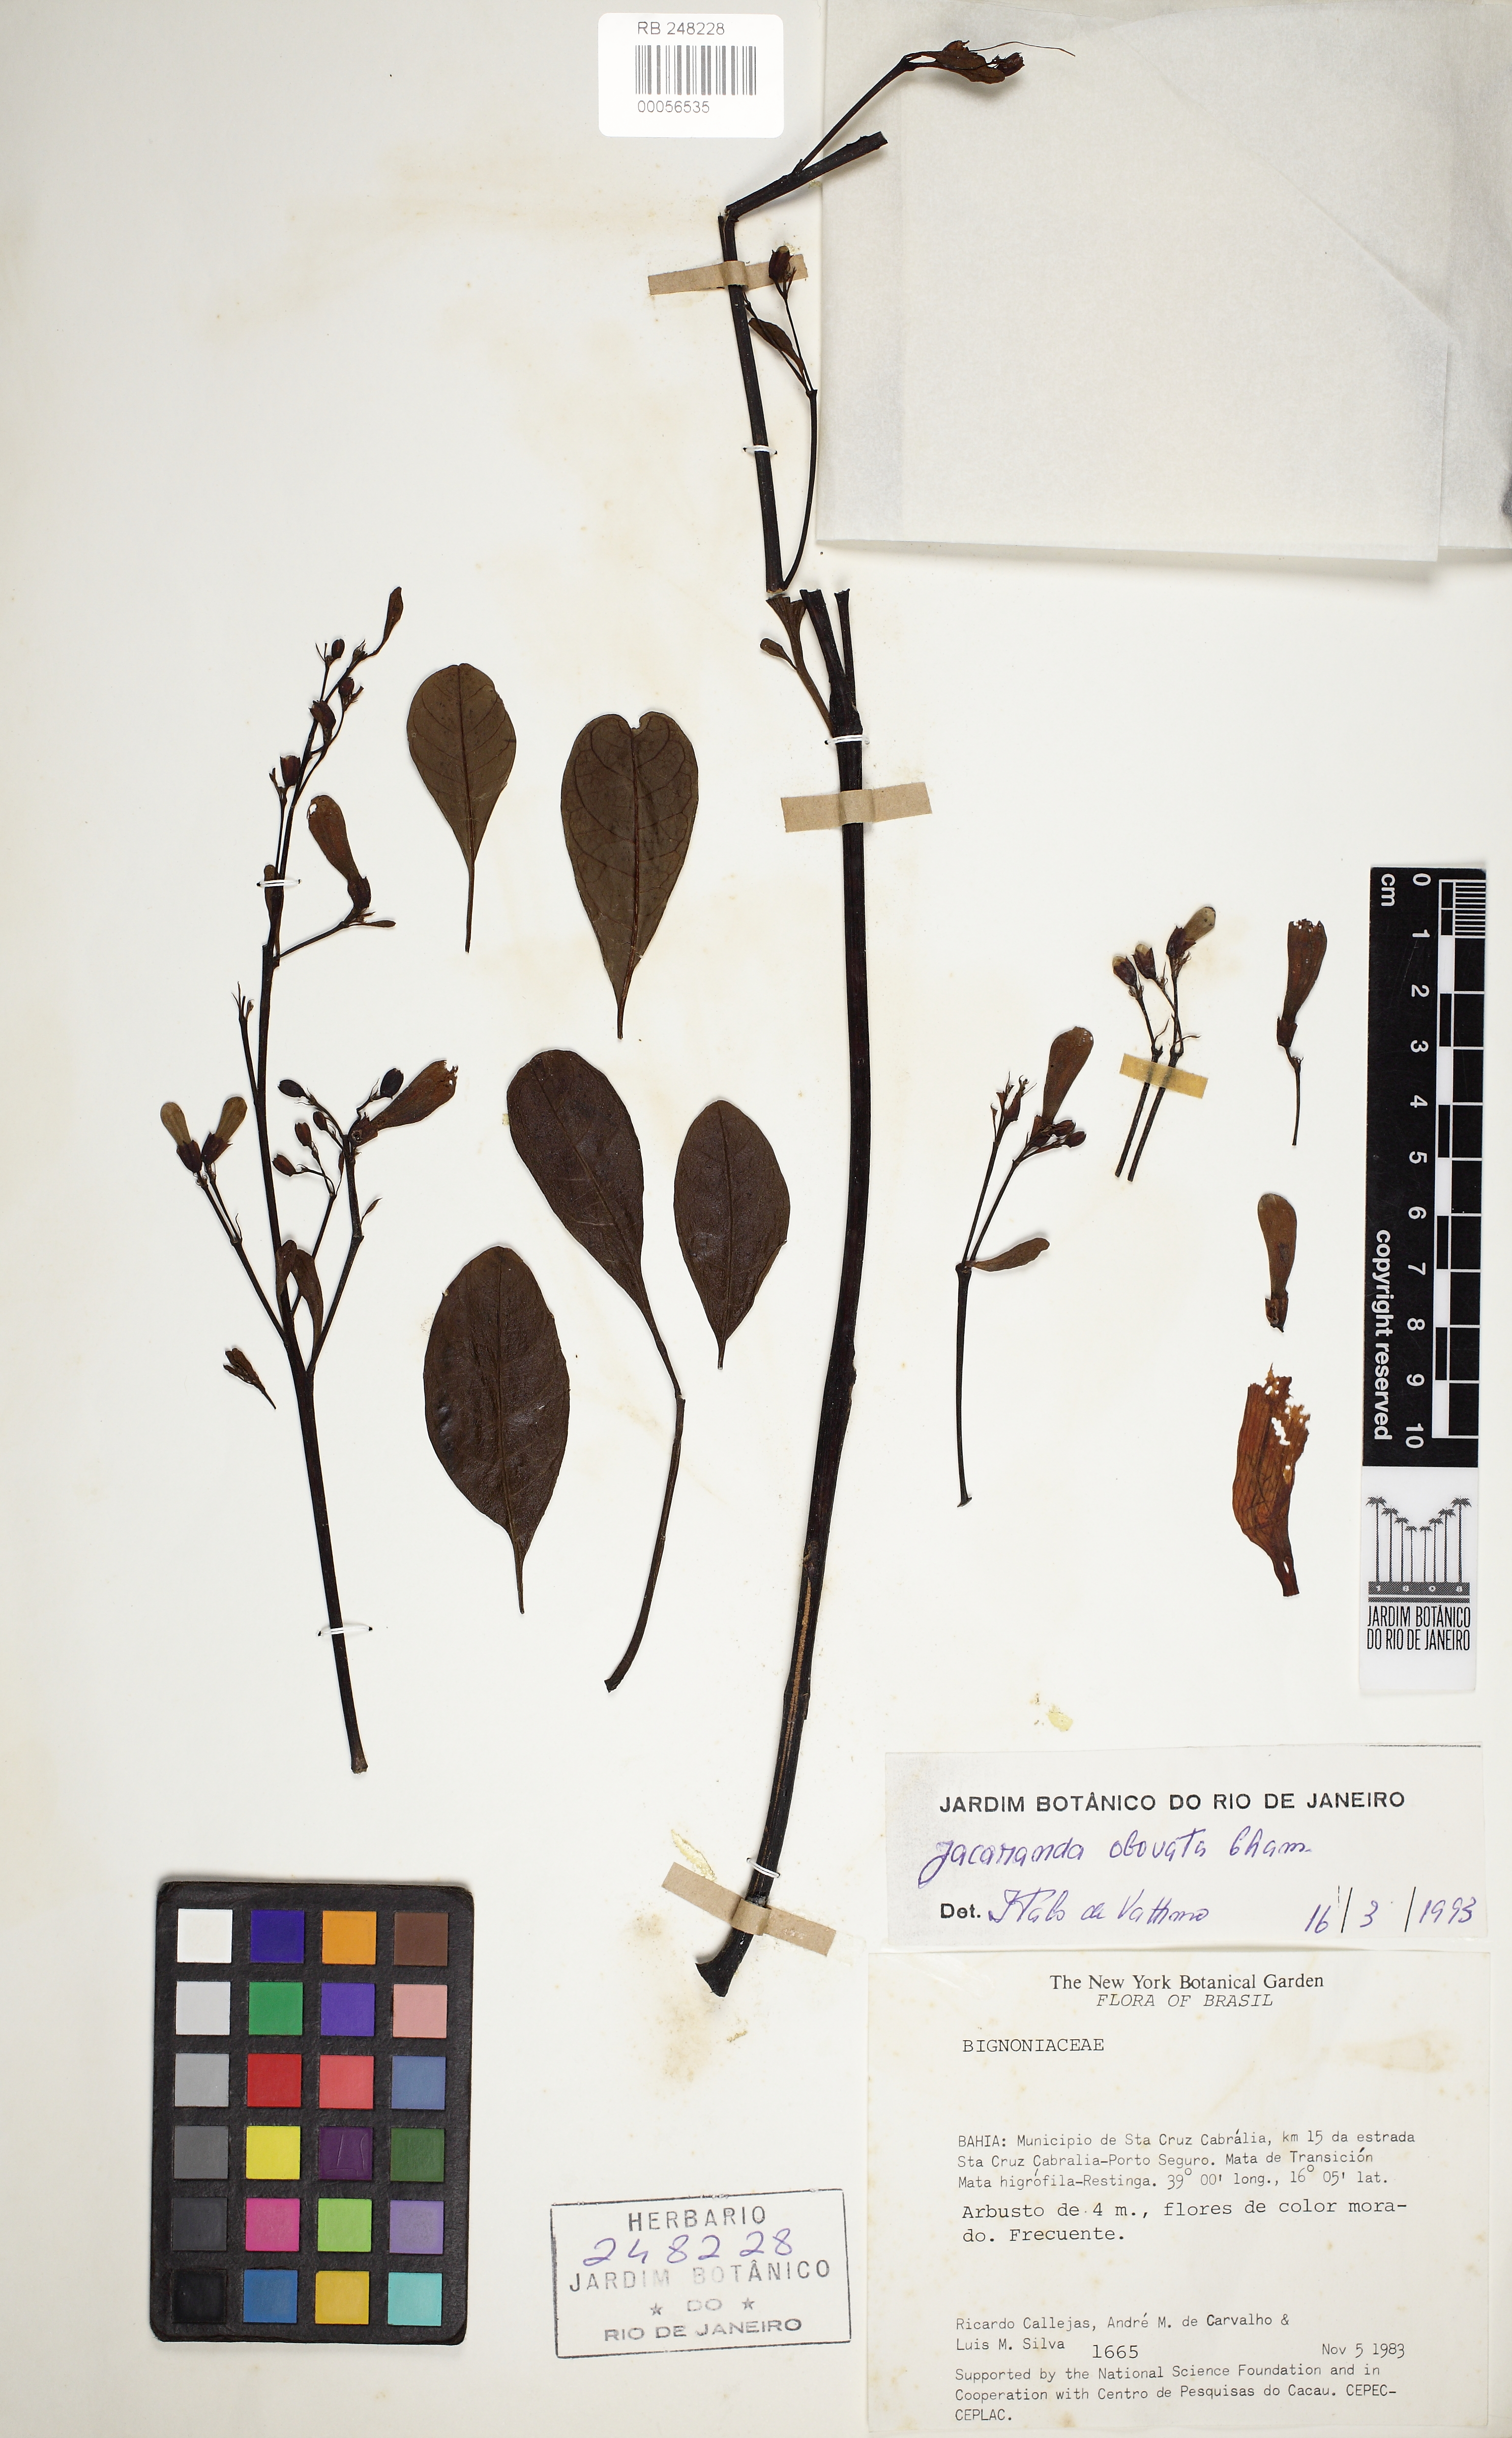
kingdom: Plantae
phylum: Tracheophyta
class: Magnoliopsida
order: Lamiales
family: Bignoniaceae
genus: Jacaranda
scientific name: Jacaranda obovata
